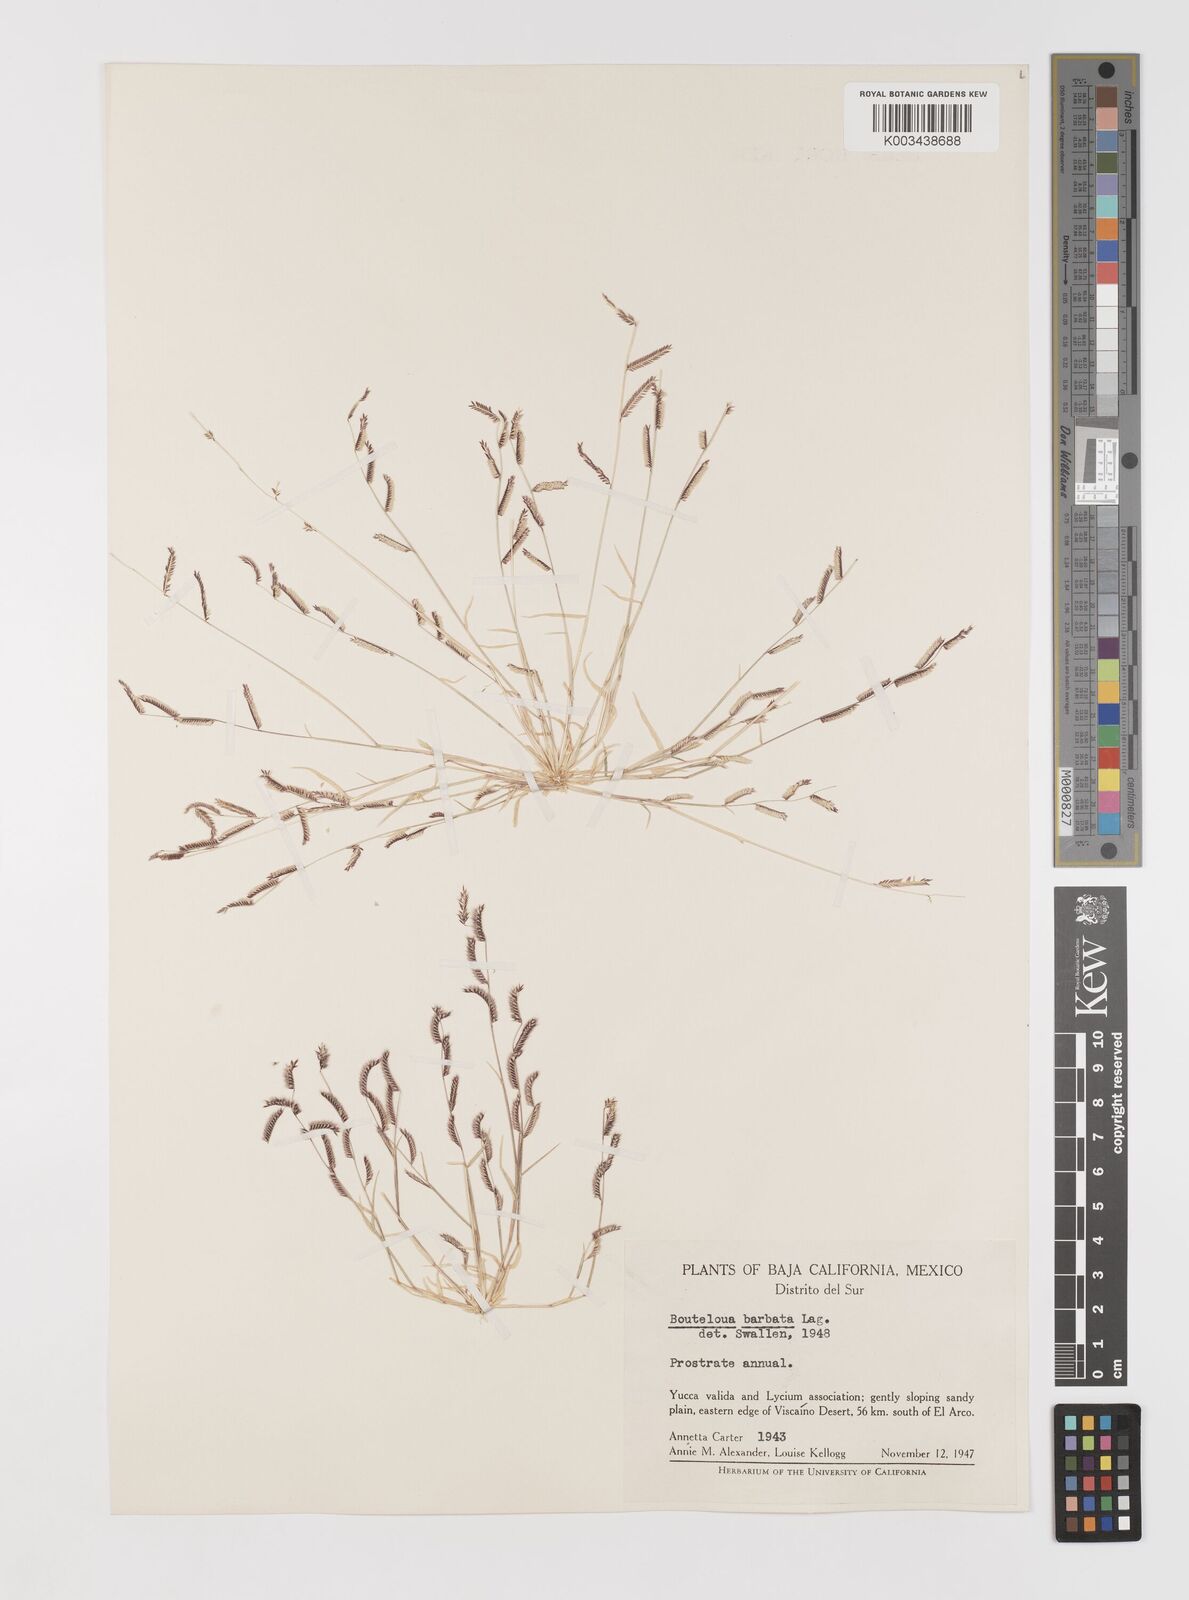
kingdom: Plantae
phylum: Tracheophyta
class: Liliopsida
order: Poales
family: Poaceae
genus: Bouteloua
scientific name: Bouteloua
